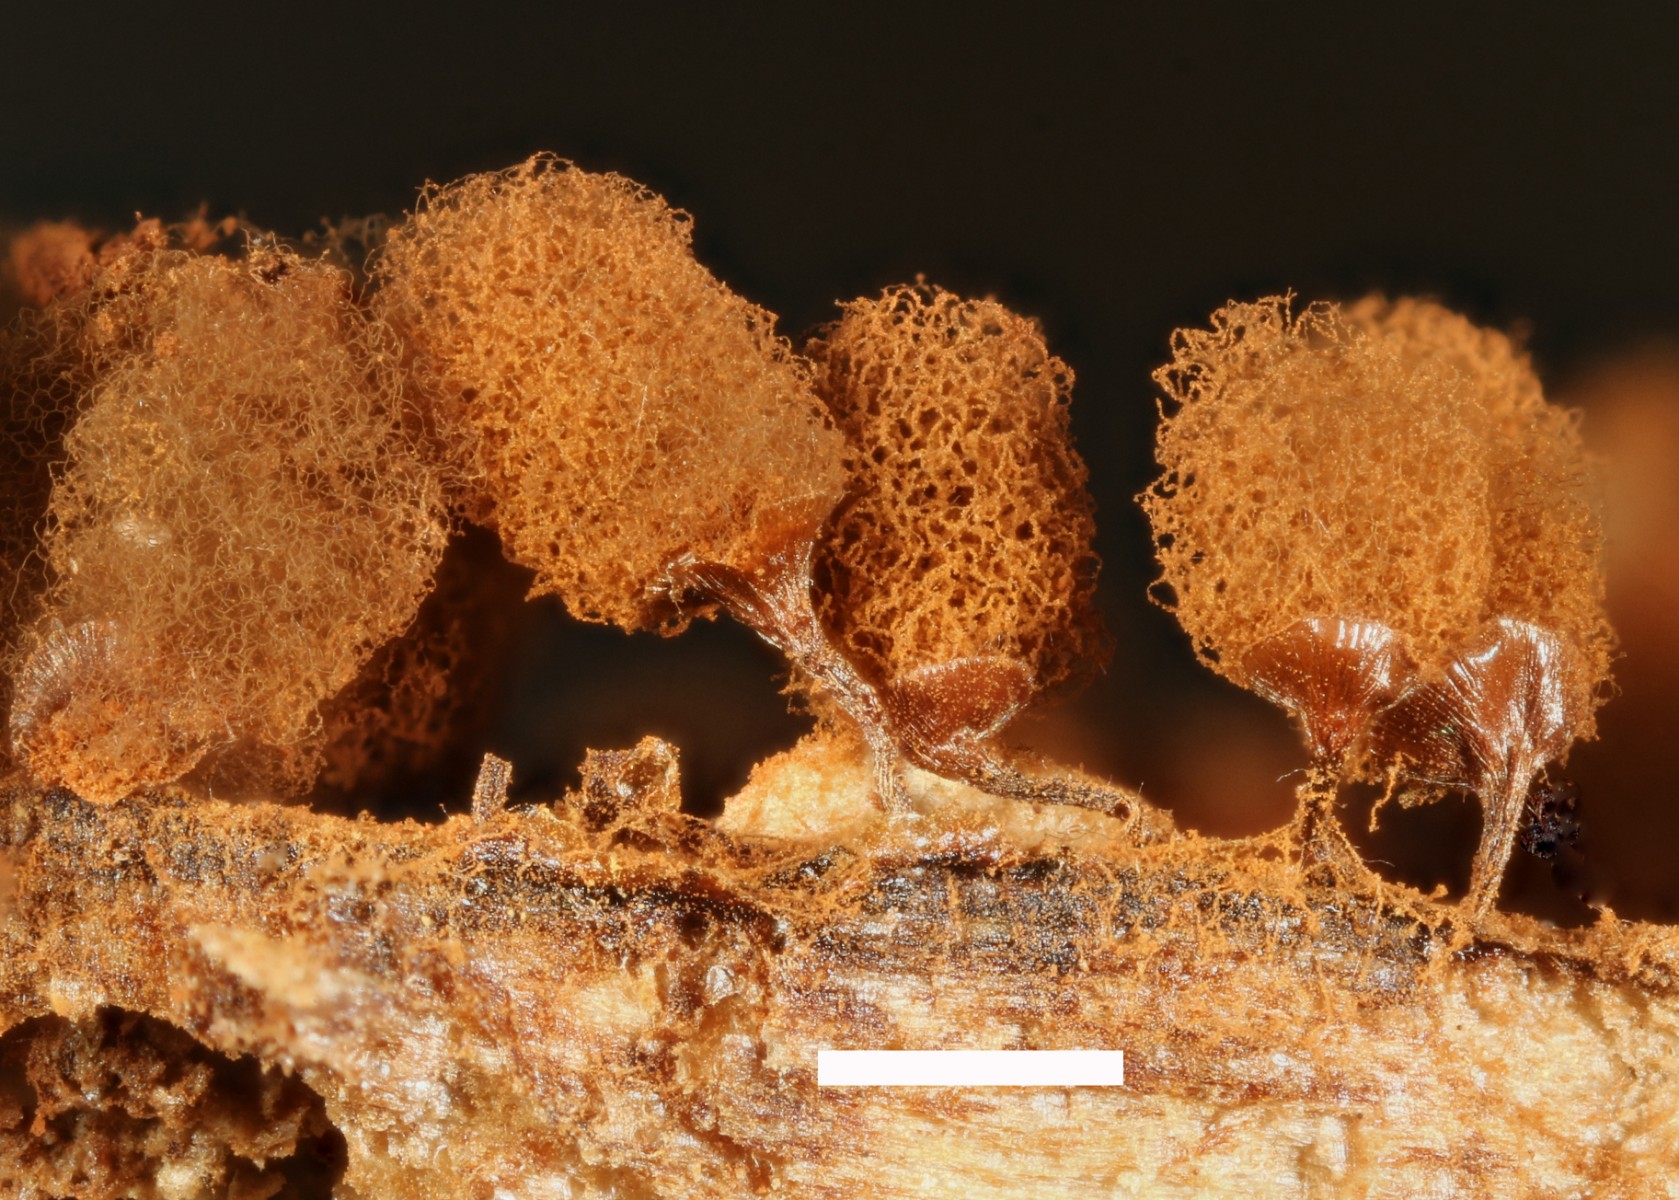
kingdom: Protozoa
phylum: Mycetozoa
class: Myxomycetes
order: Trichiales
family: Arcyriaceae
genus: Arcyria
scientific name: Arcyria denudata
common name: karminrød skålsvøb
